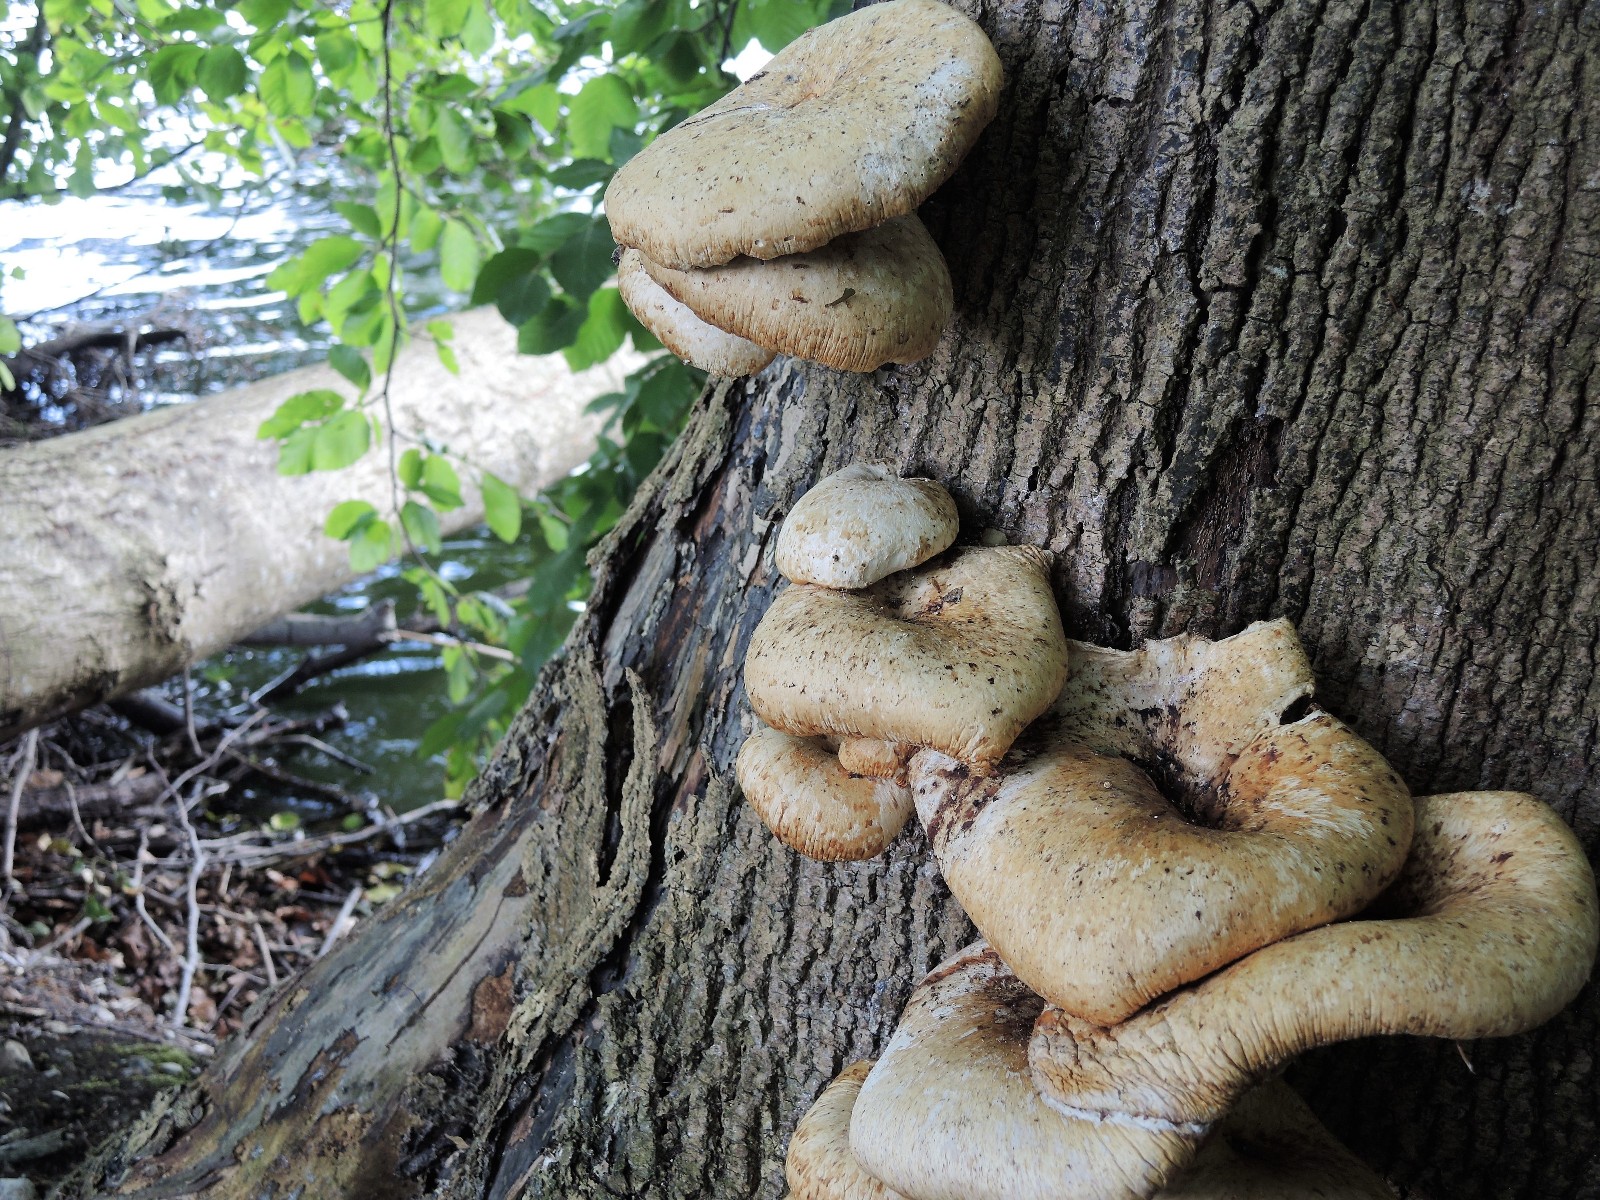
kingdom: Fungi
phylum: Basidiomycota
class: Agaricomycetes
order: Polyporales
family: Polyporaceae
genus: Cerioporus
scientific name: Cerioporus squamosus
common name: skællet stilkporesvamp
